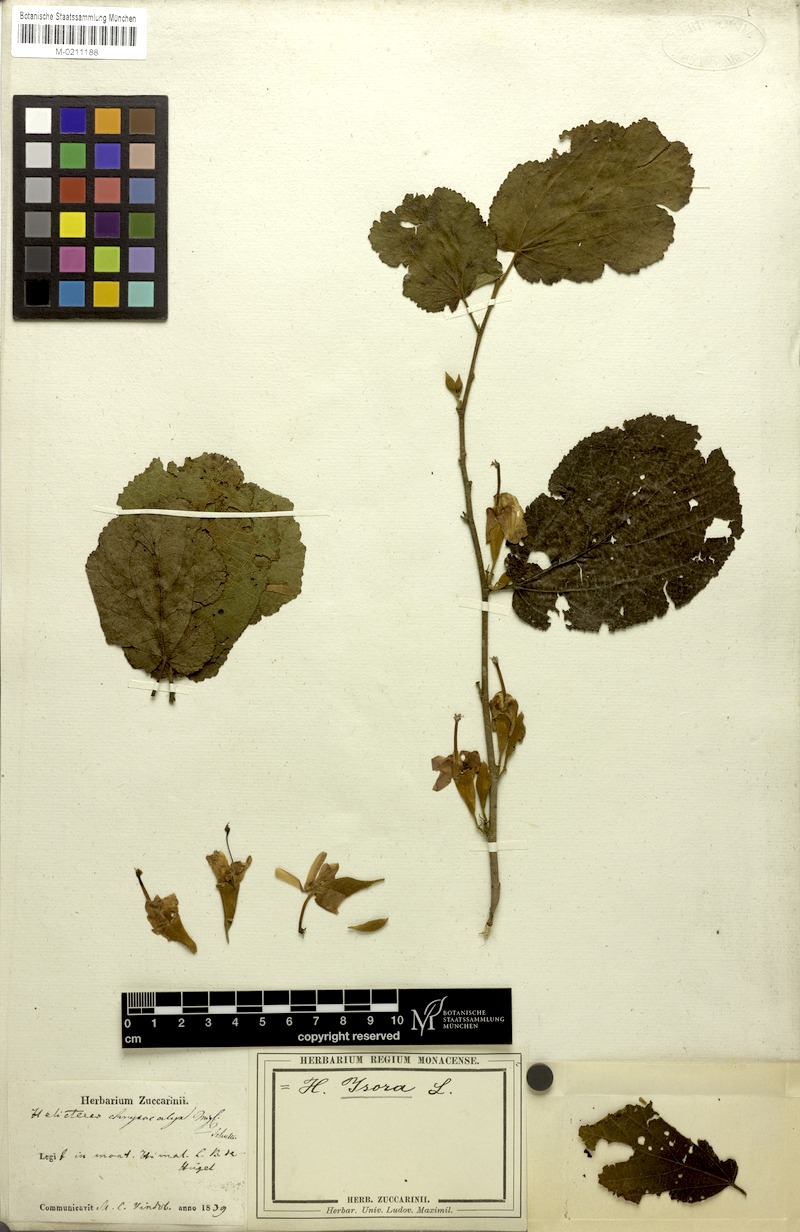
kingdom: Plantae
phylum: Tracheophyta
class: Magnoliopsida
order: Malvales
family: Malvaceae
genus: Helicteres
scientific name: Helicteres isora
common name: East indian screwtree
